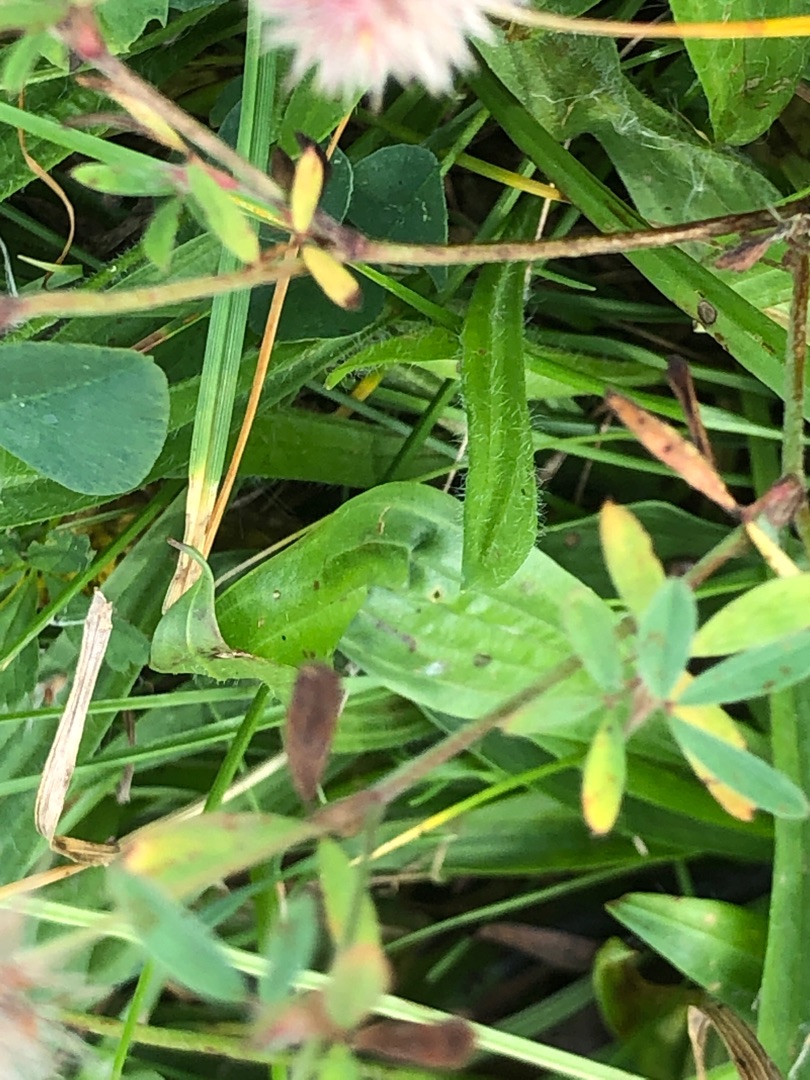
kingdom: Plantae
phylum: Tracheophyta
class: Magnoliopsida
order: Fabales
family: Fabaceae
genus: Trifolium
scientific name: Trifolium arvense
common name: Hare-kløver
